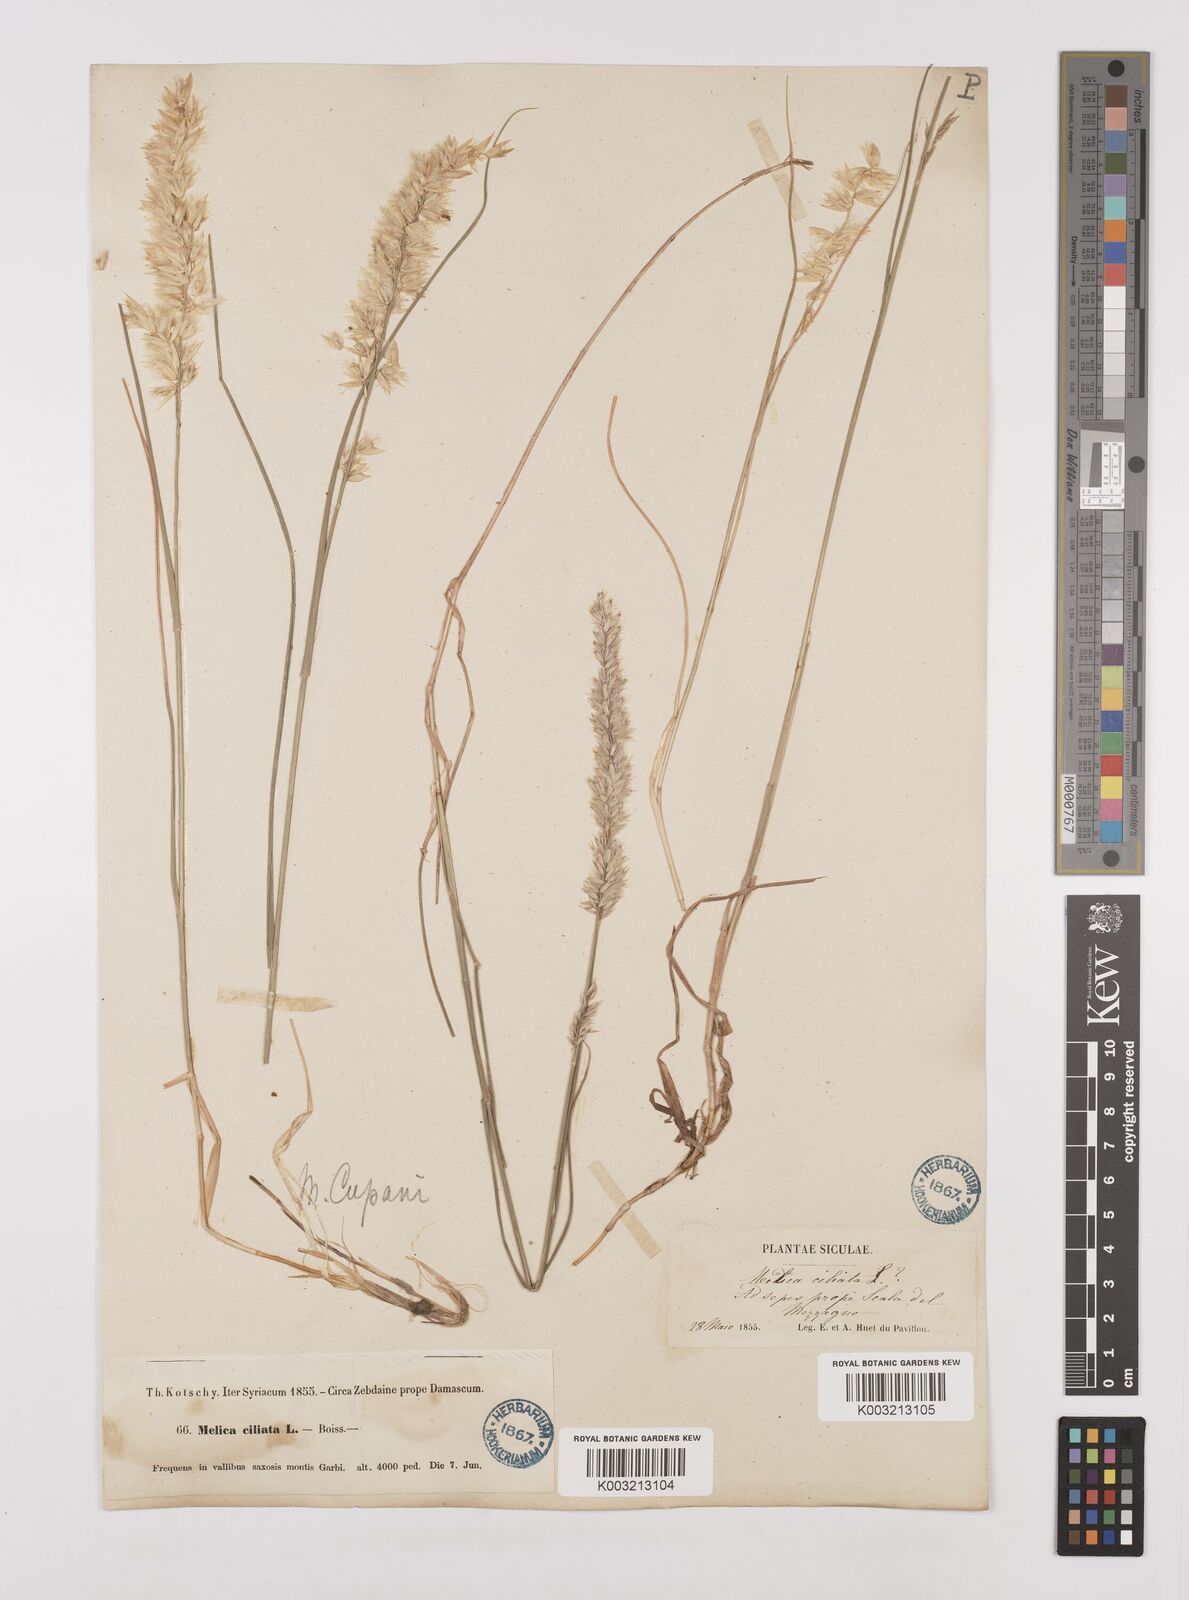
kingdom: Plantae
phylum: Tracheophyta
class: Liliopsida
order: Poales
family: Poaceae
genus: Melica
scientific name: Melica ciliata
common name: Hairy melicgrass
